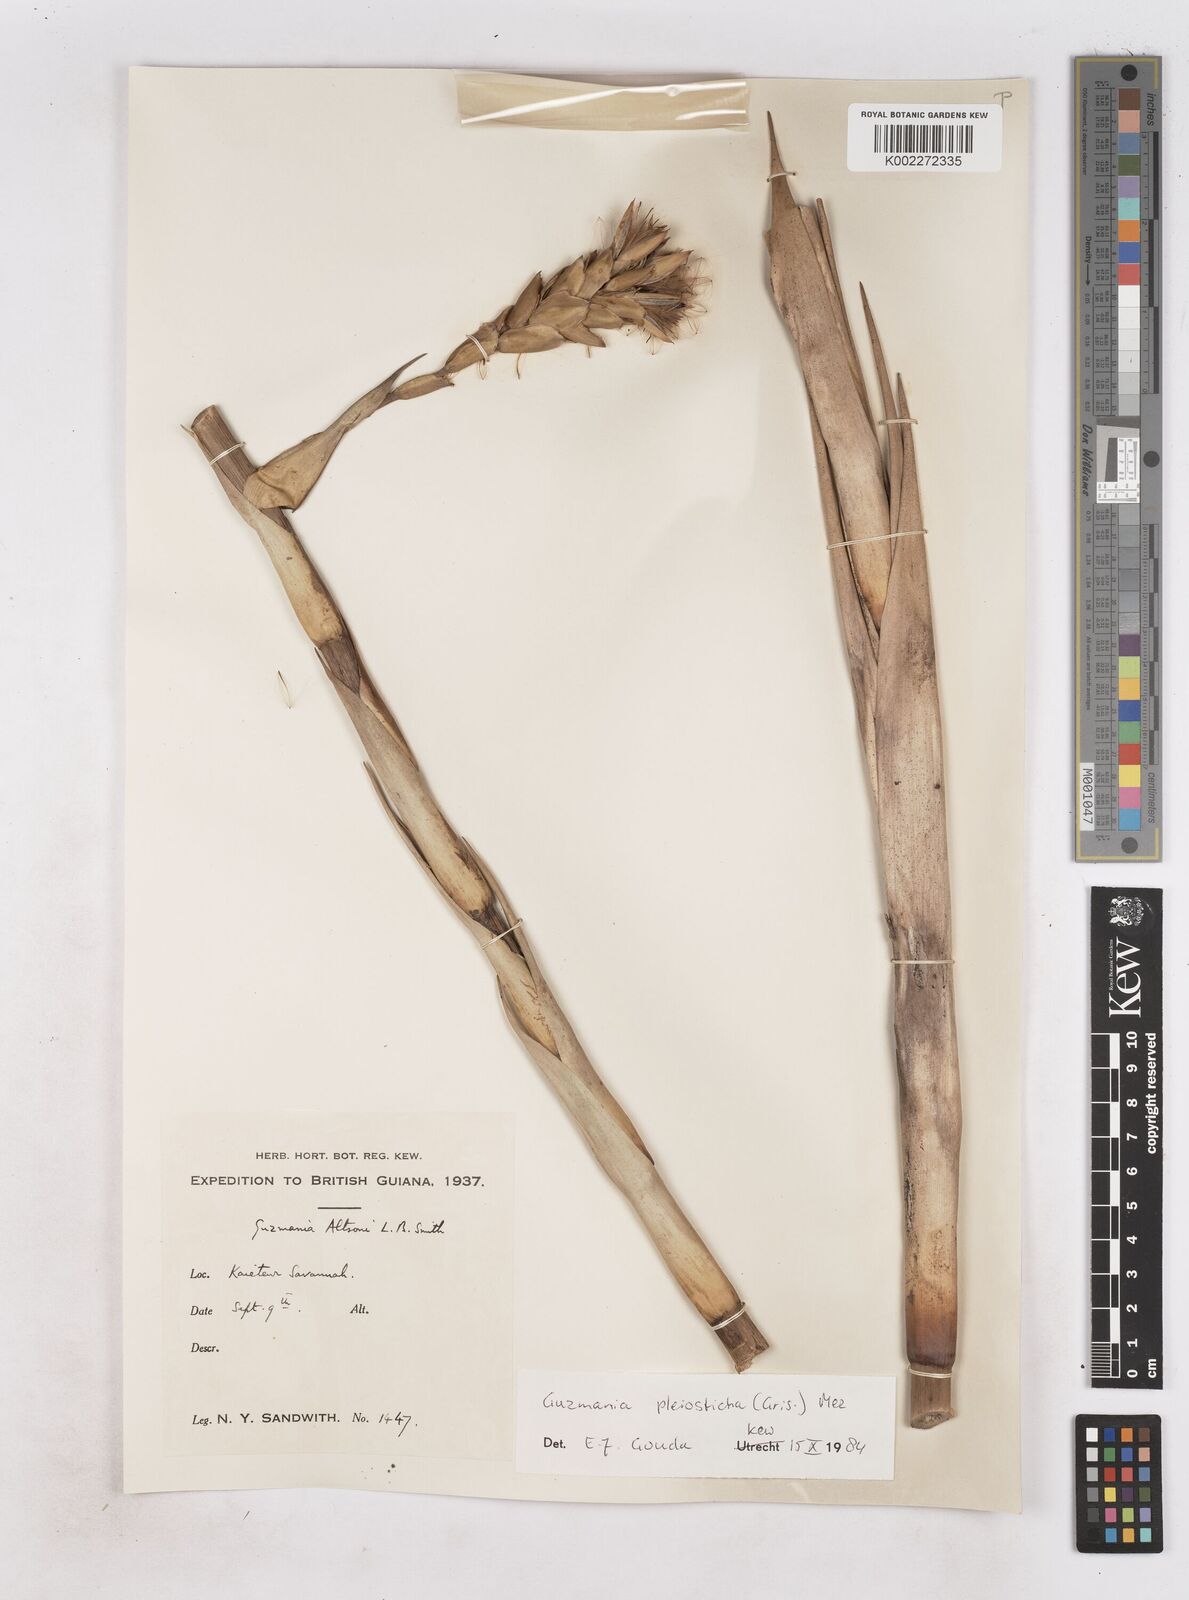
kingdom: Plantae
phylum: Tracheophyta
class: Liliopsida
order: Poales
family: Bromeliaceae
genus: Guzmania
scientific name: Guzmania altsonii
